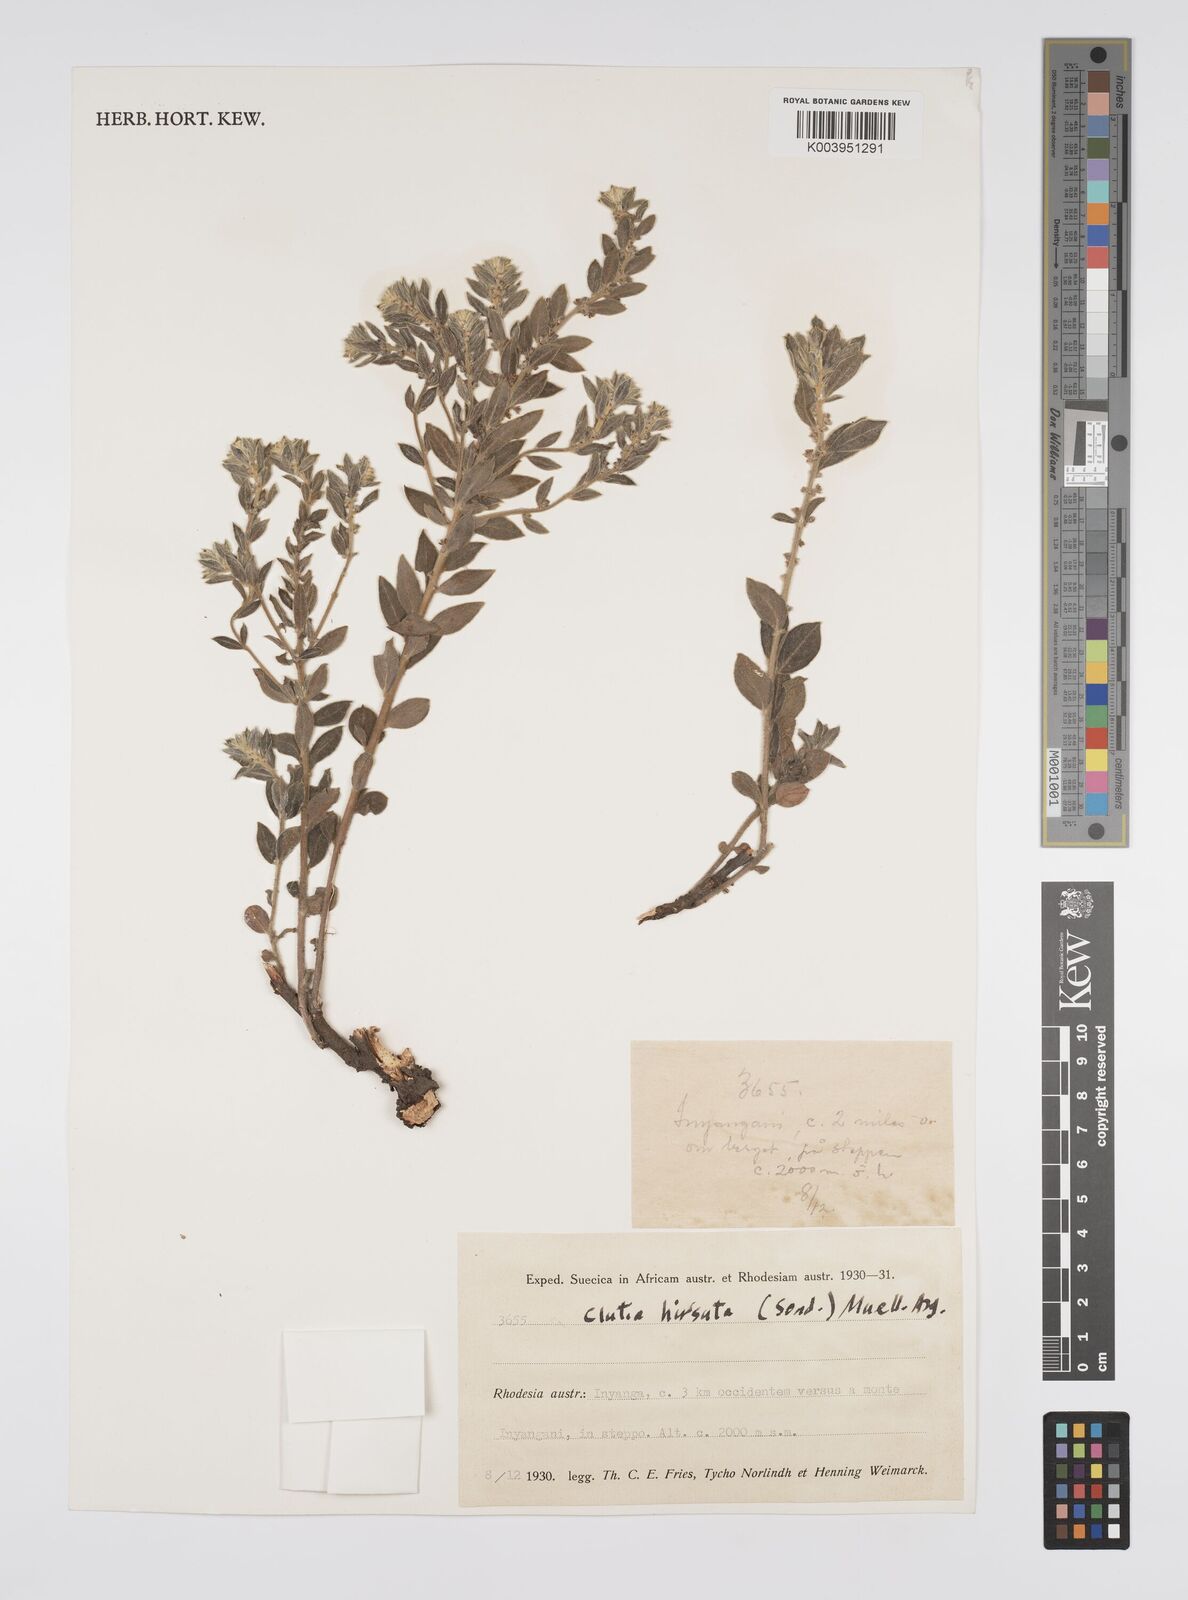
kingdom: Plantae
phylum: Tracheophyta
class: Magnoliopsida
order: Malpighiales
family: Peraceae
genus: Clutia
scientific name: Clutia hirsuta
